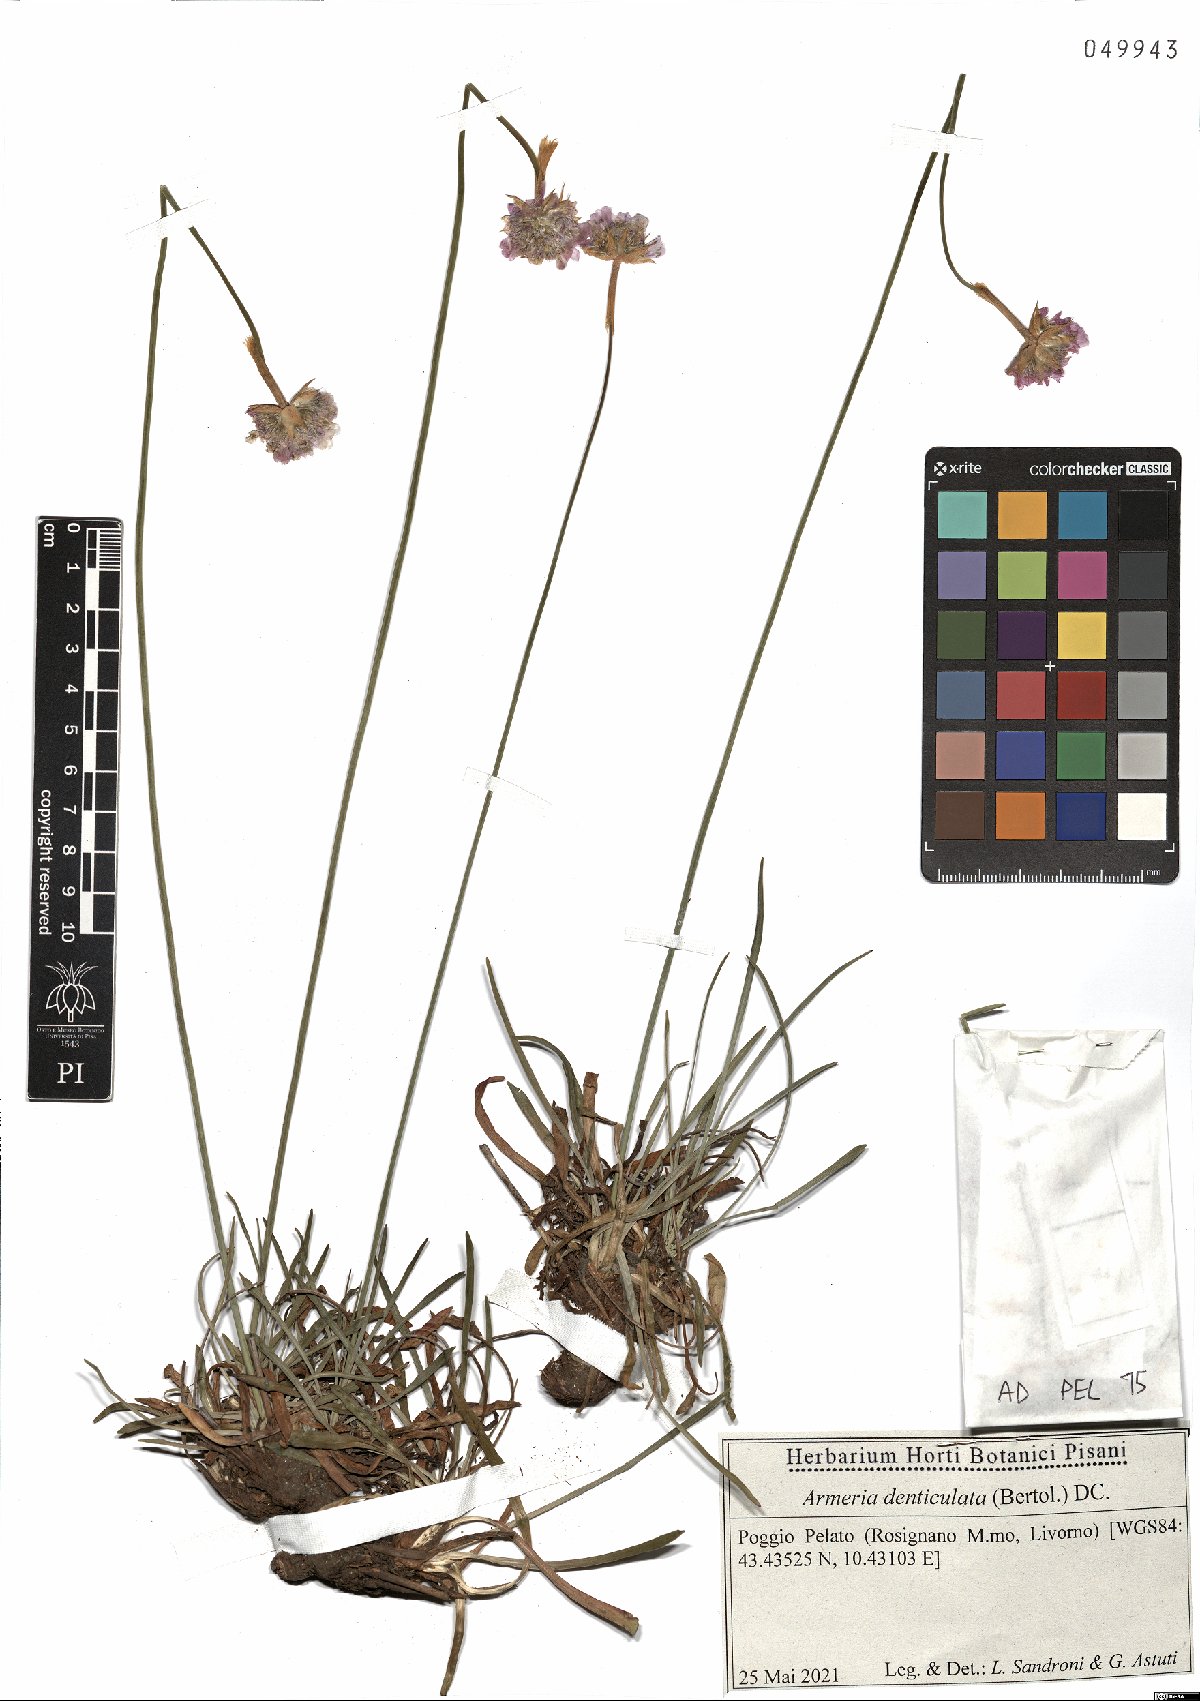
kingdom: Plantae
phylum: Tracheophyta
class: Magnoliopsida
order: Caryophyllales
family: Plumbaginaceae
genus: Armeria
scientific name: Armeria denticulata
